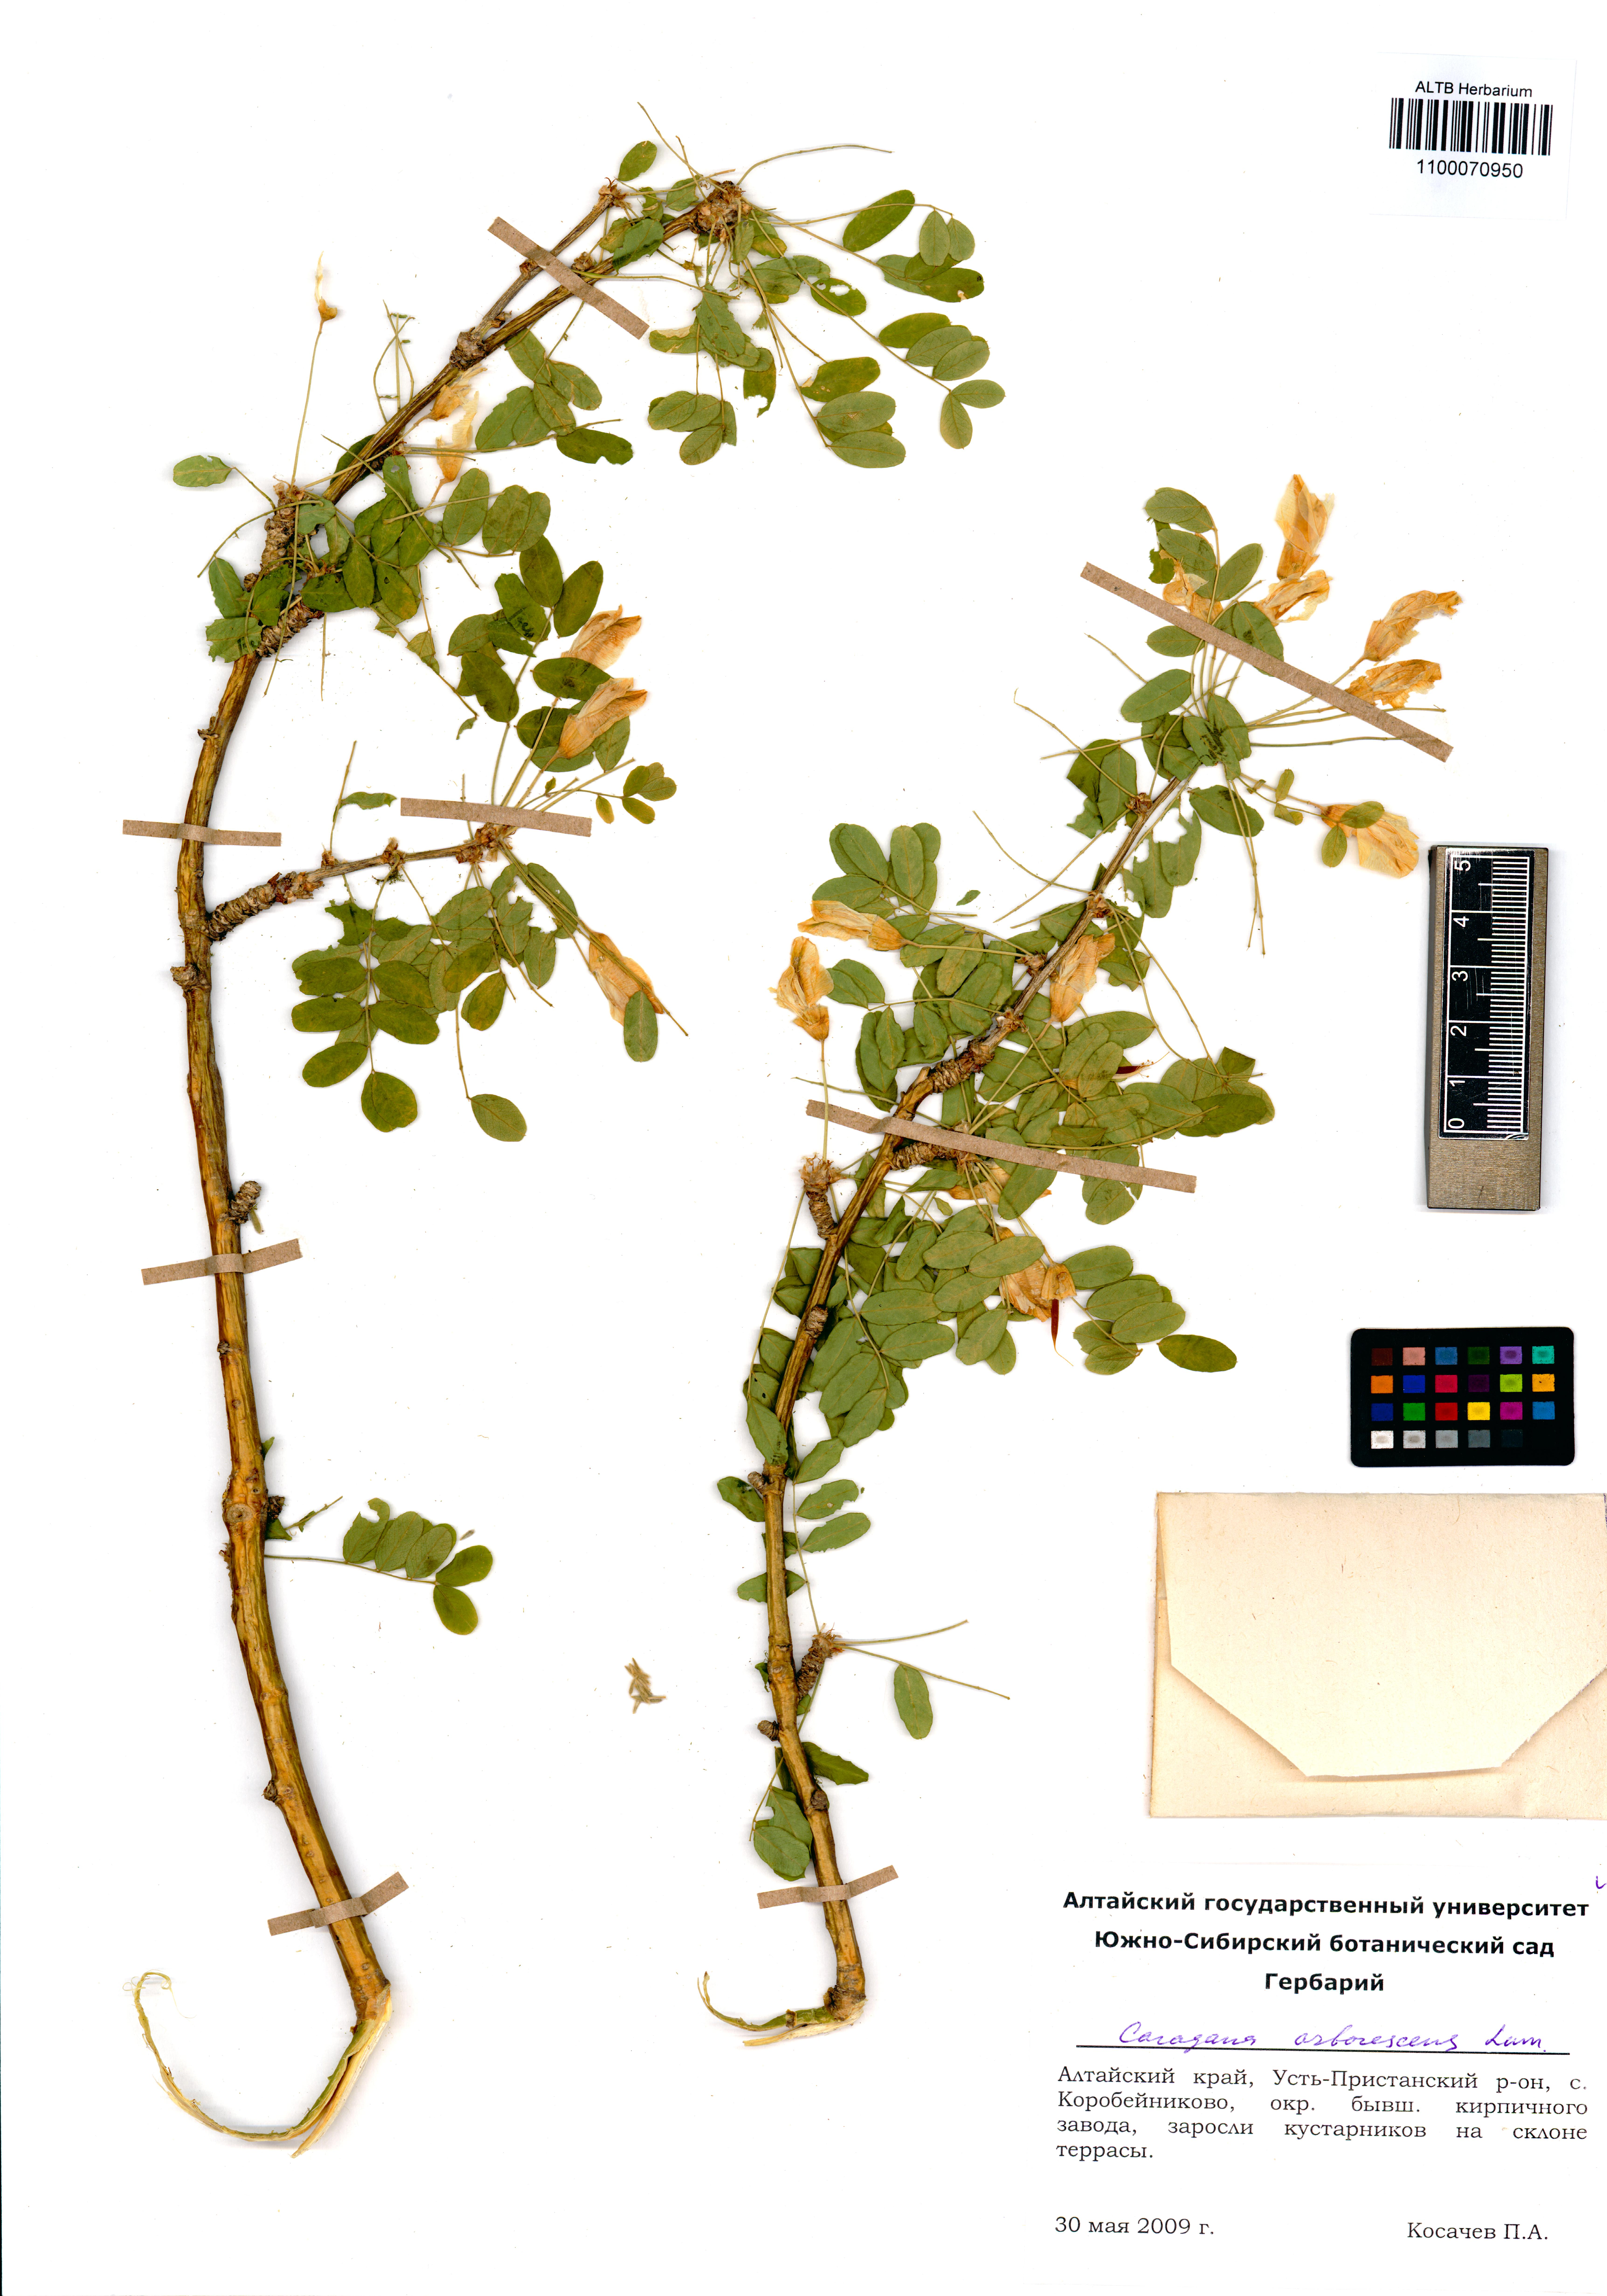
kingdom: Plantae
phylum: Tracheophyta
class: Magnoliopsida
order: Fabales
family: Fabaceae
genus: Caragana
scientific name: Caragana arborescens
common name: Siberian peashrub
